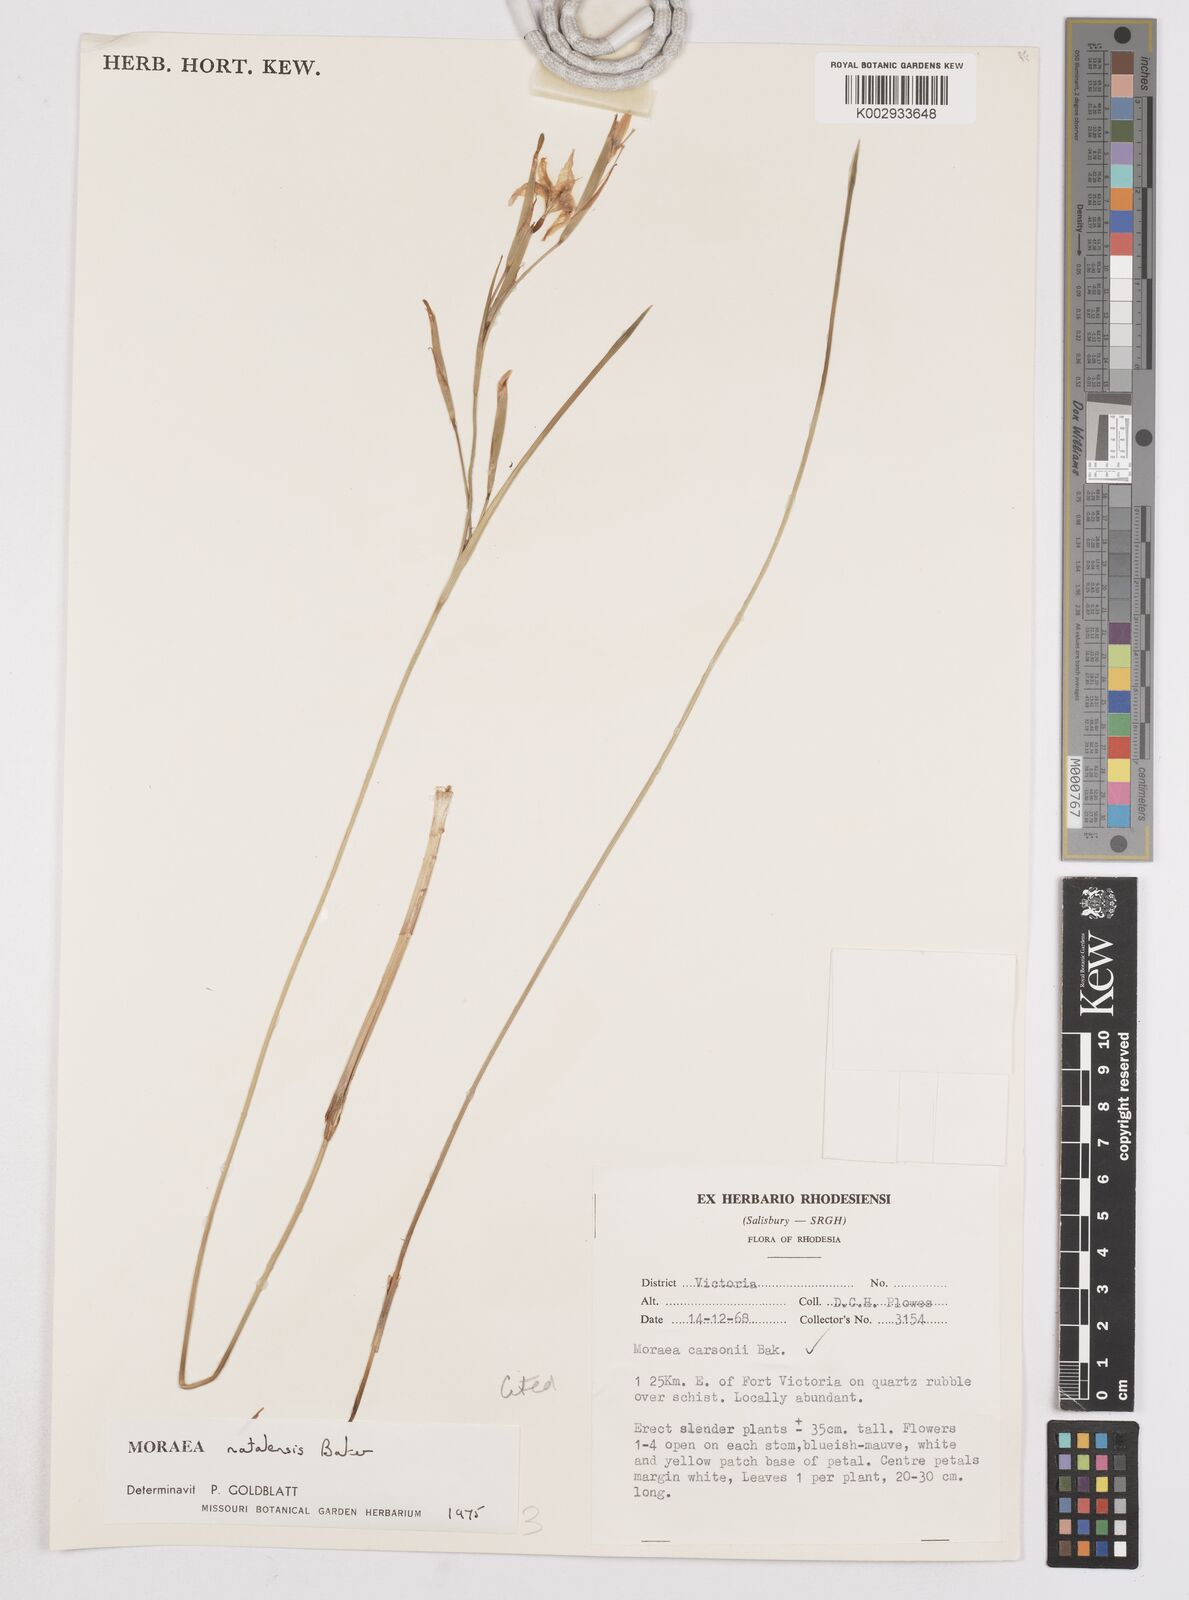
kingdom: Plantae
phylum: Tracheophyta
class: Liliopsida
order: Asparagales
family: Iridaceae
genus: Moraea
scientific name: Moraea natalensis
